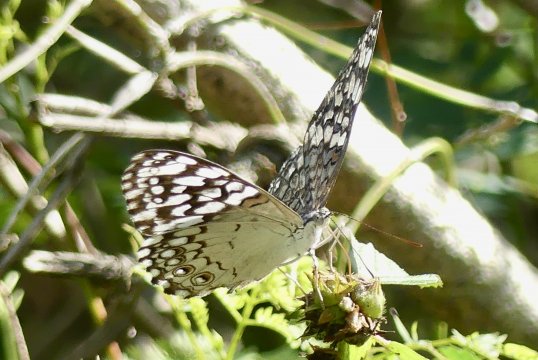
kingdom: Animalia
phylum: Arthropoda
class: Insecta
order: Lepidoptera
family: Nymphalidae
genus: Hamadryas
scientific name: Hamadryas februa
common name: Pale Cracker
